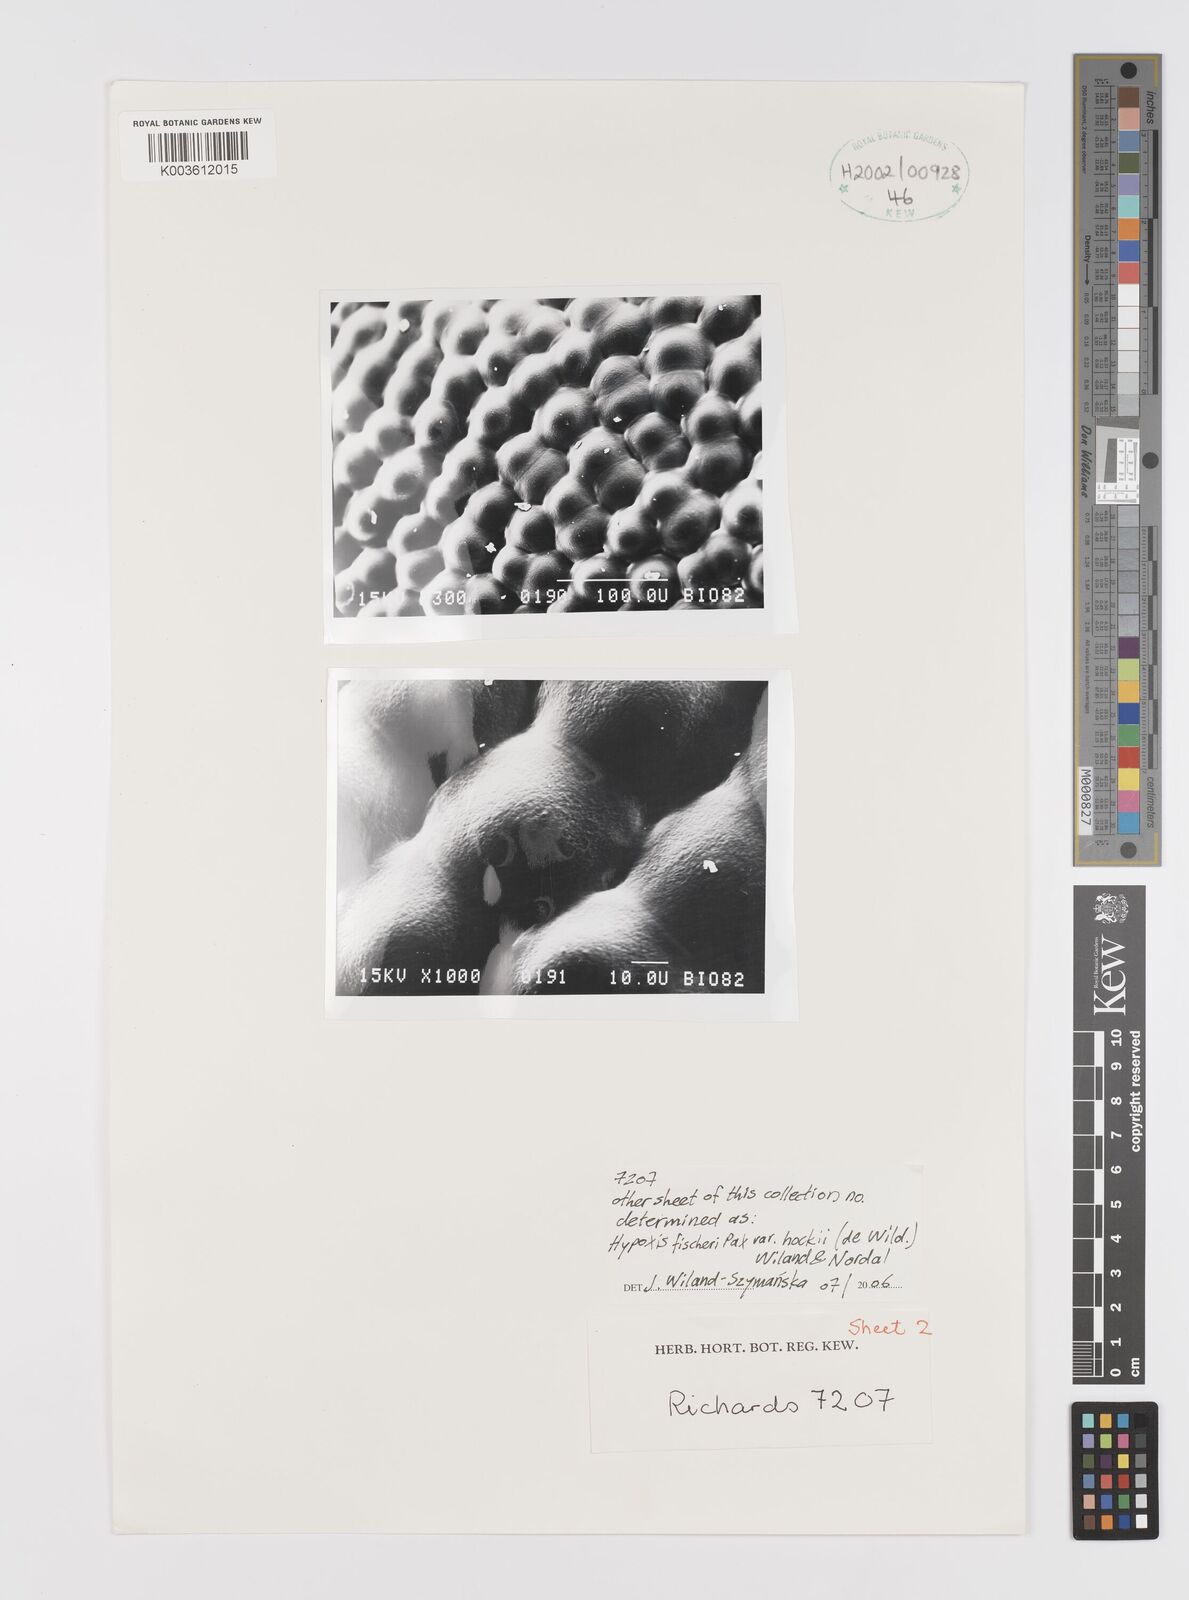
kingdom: Plantae
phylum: Tracheophyta
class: Liliopsida
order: Asparagales
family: Hypoxidaceae
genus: Hypoxis
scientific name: Hypoxis fischeri
